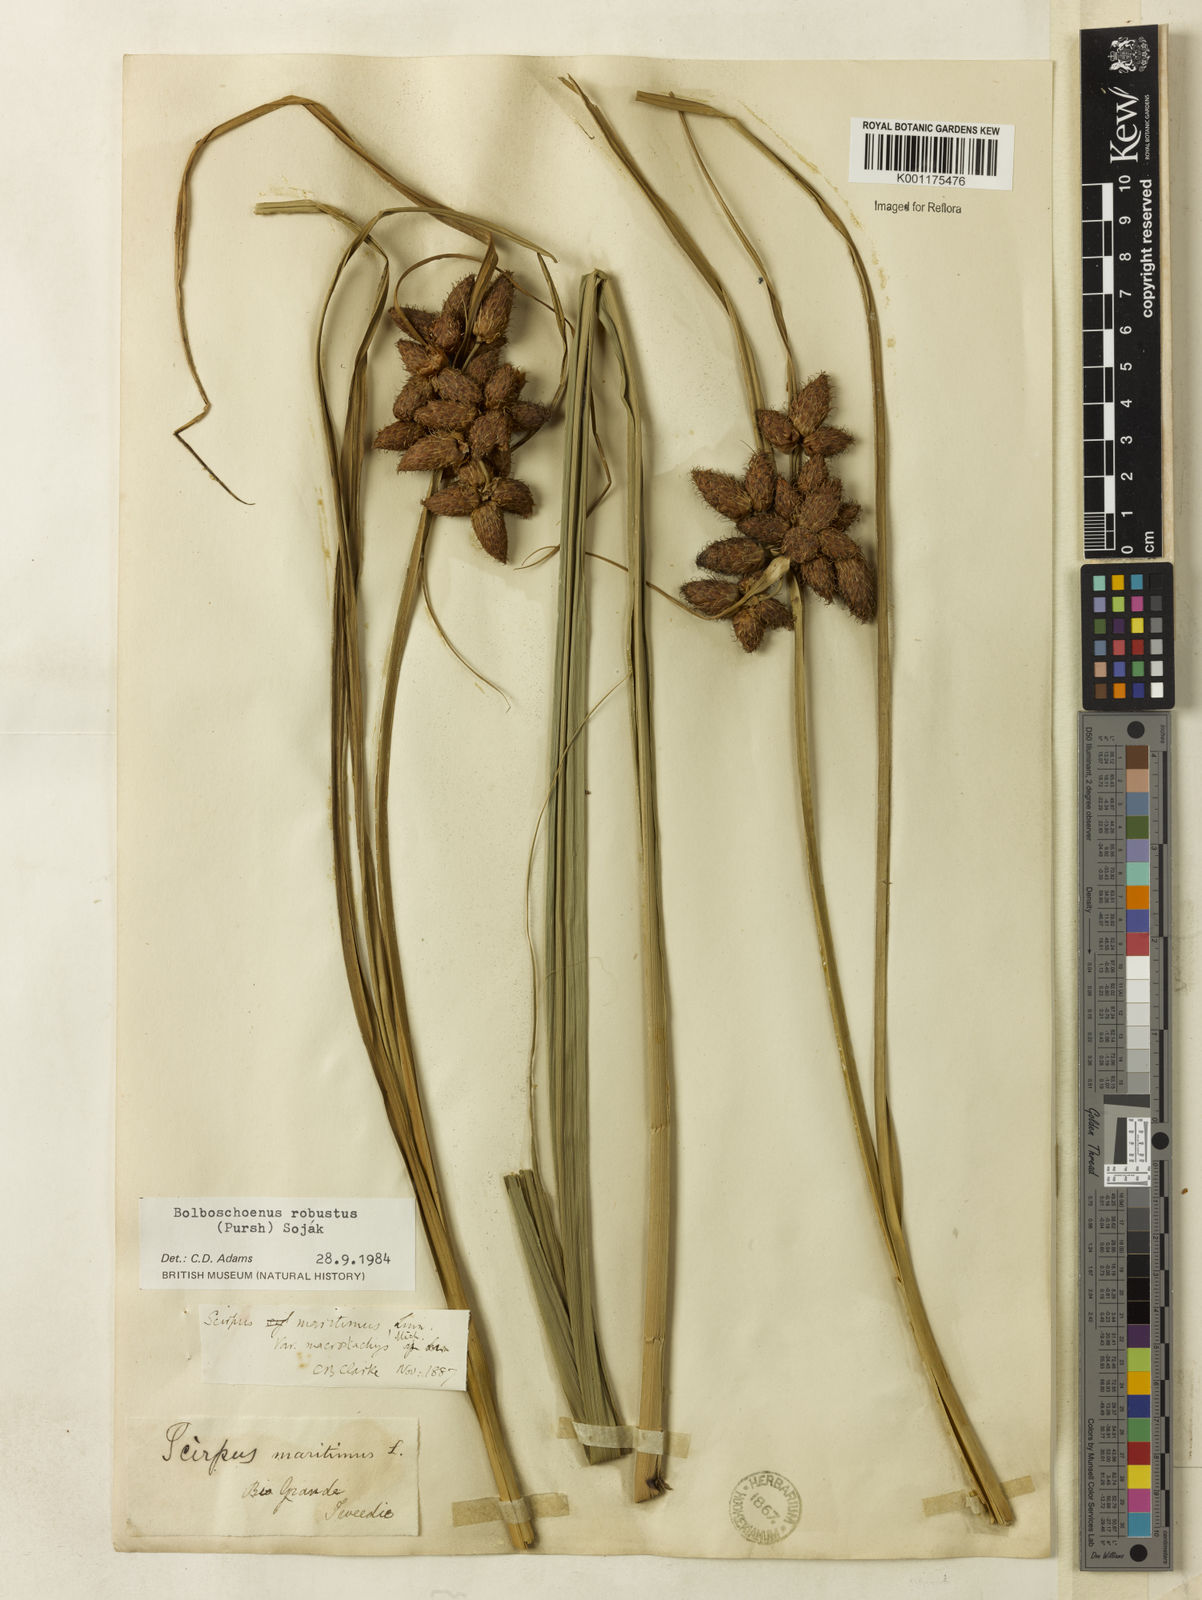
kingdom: Plantae
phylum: Tracheophyta
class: Liliopsida
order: Poales
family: Cyperaceae
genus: Bolboschoenus
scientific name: Bolboschoenus robustus
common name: Seacoast bulrush
